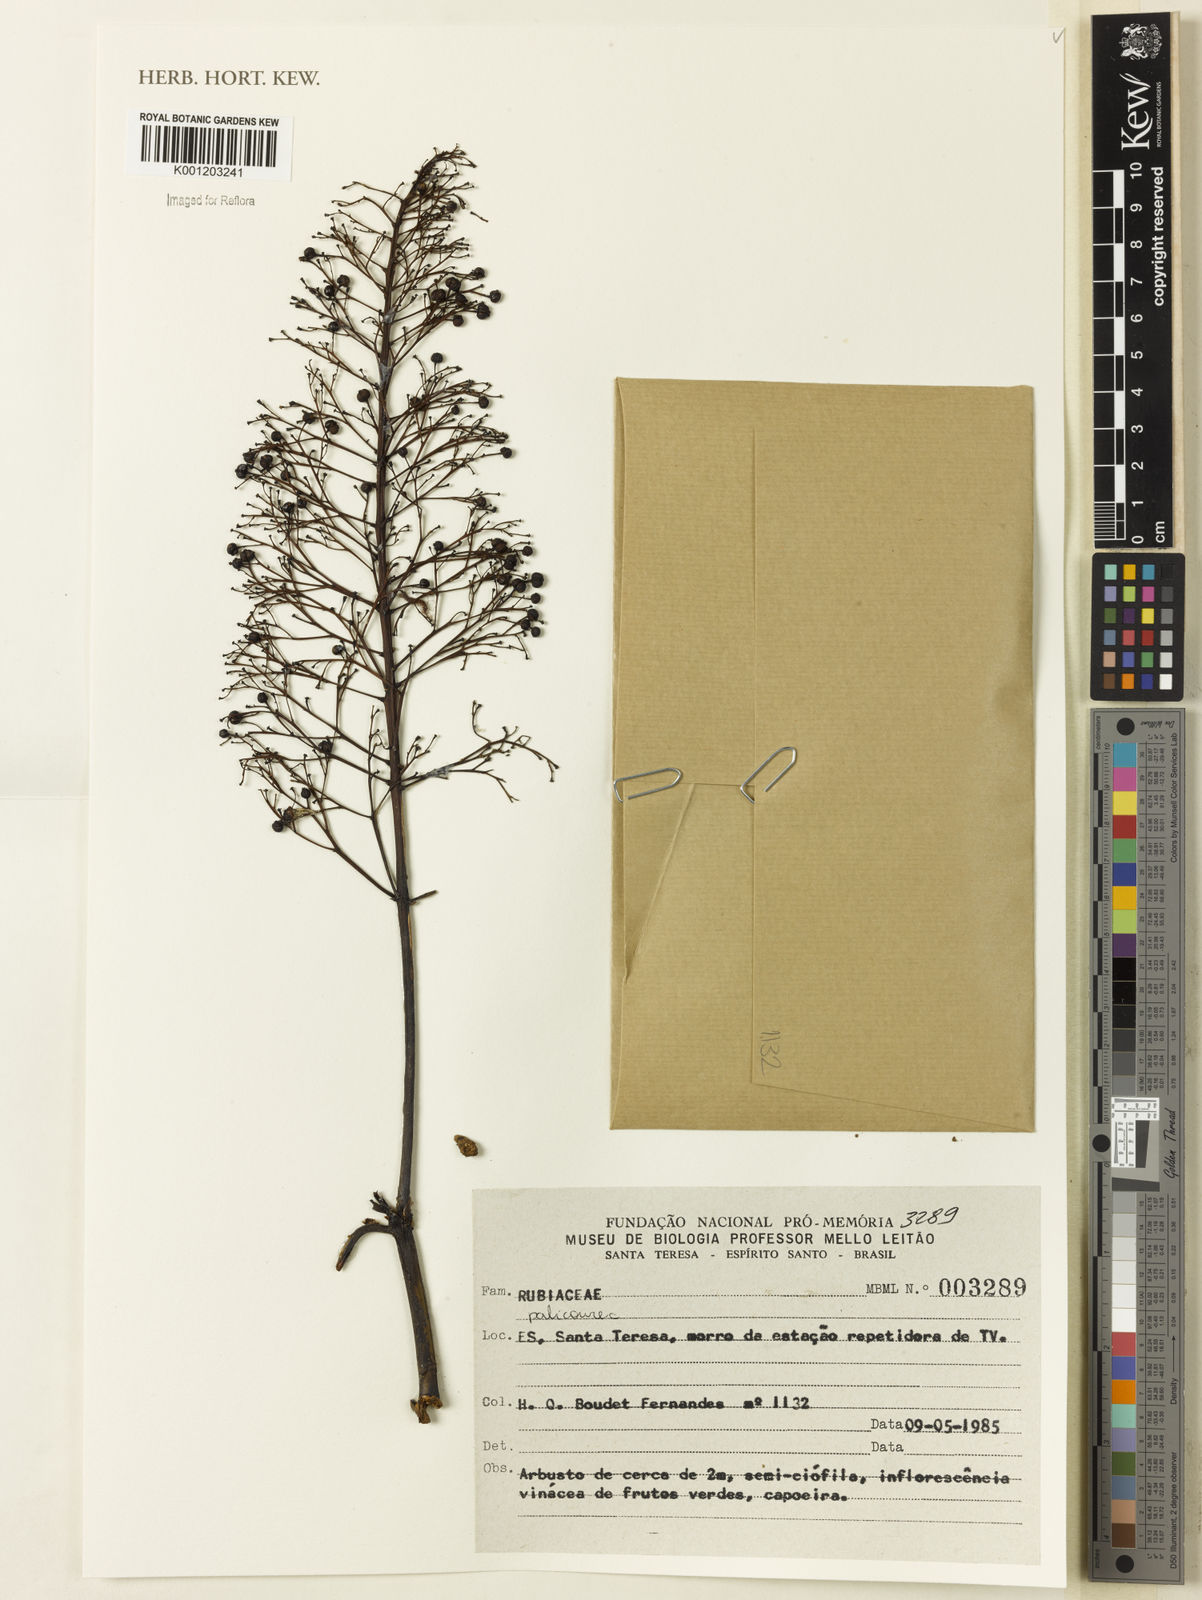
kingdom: Plantae
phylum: Tracheophyta
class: Magnoliopsida
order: Gentianales
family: Rubiaceae
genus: Palicourea
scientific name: Palicourea
